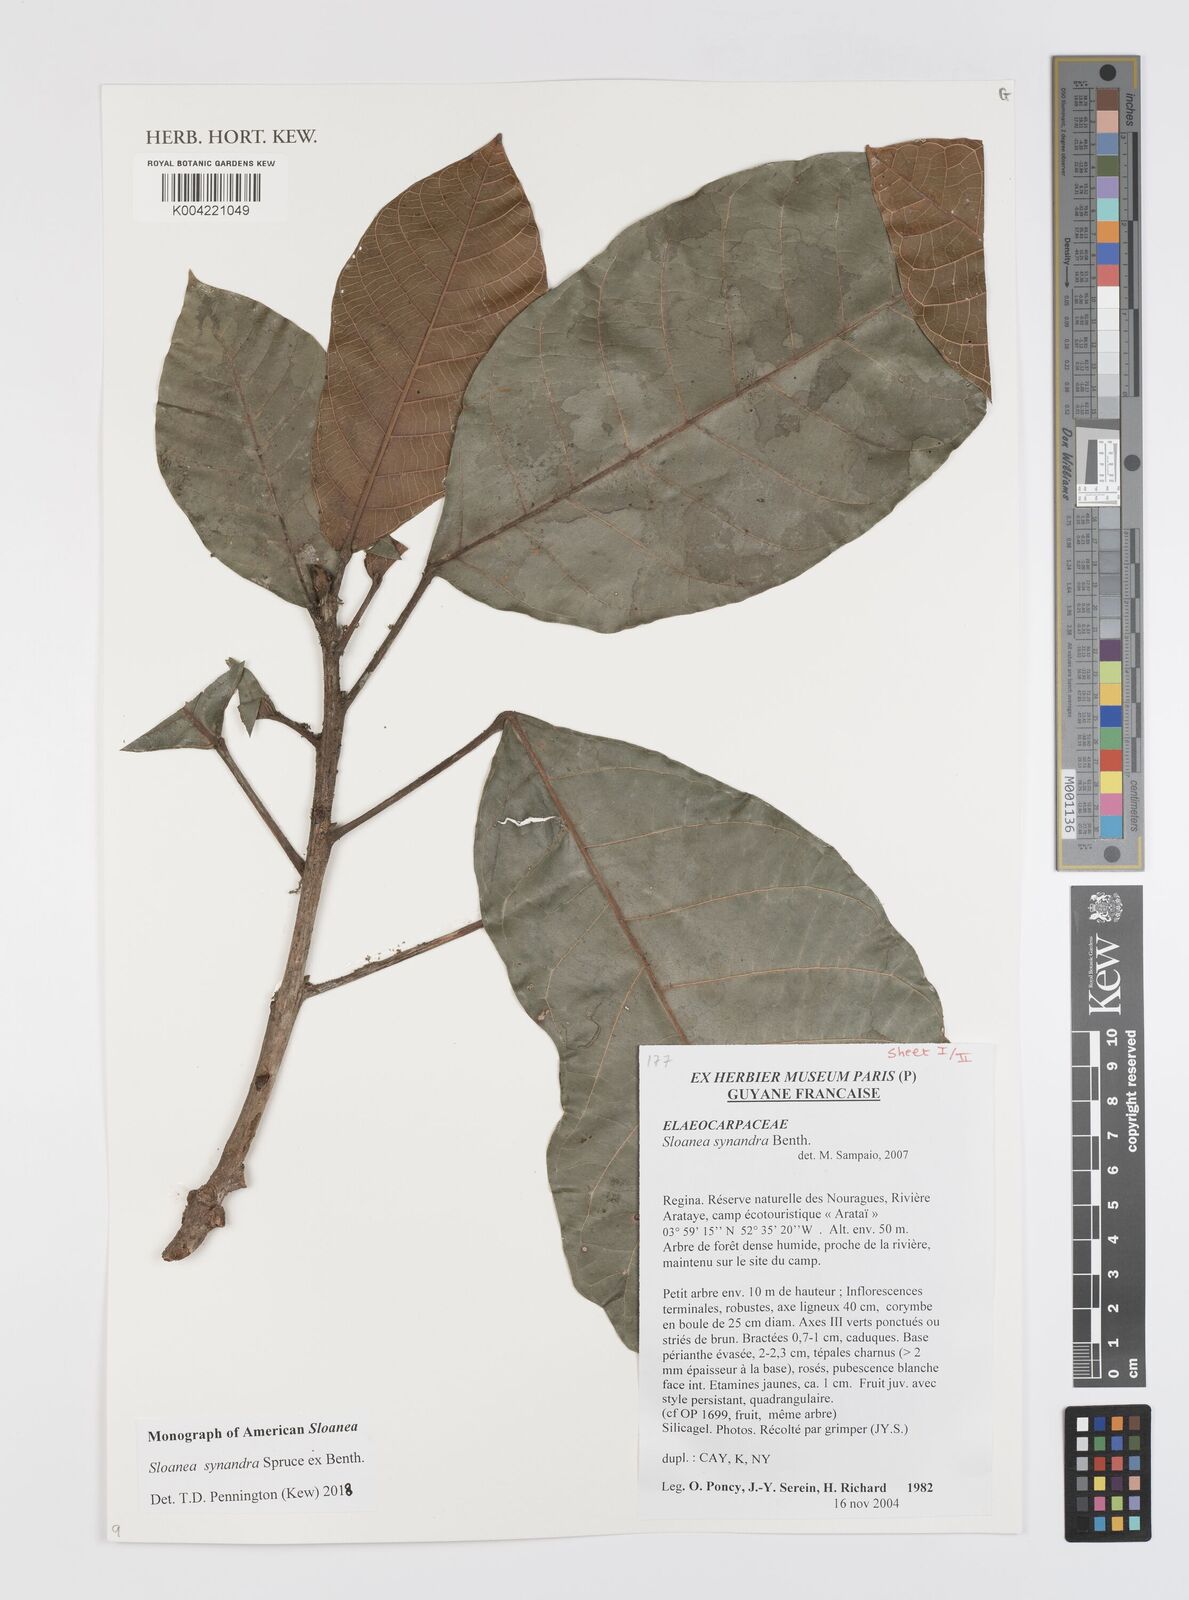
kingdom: Plantae
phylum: Tracheophyta
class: Magnoliopsida
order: Oxalidales
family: Elaeocarpaceae
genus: Sloanea
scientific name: Sloanea synandra
